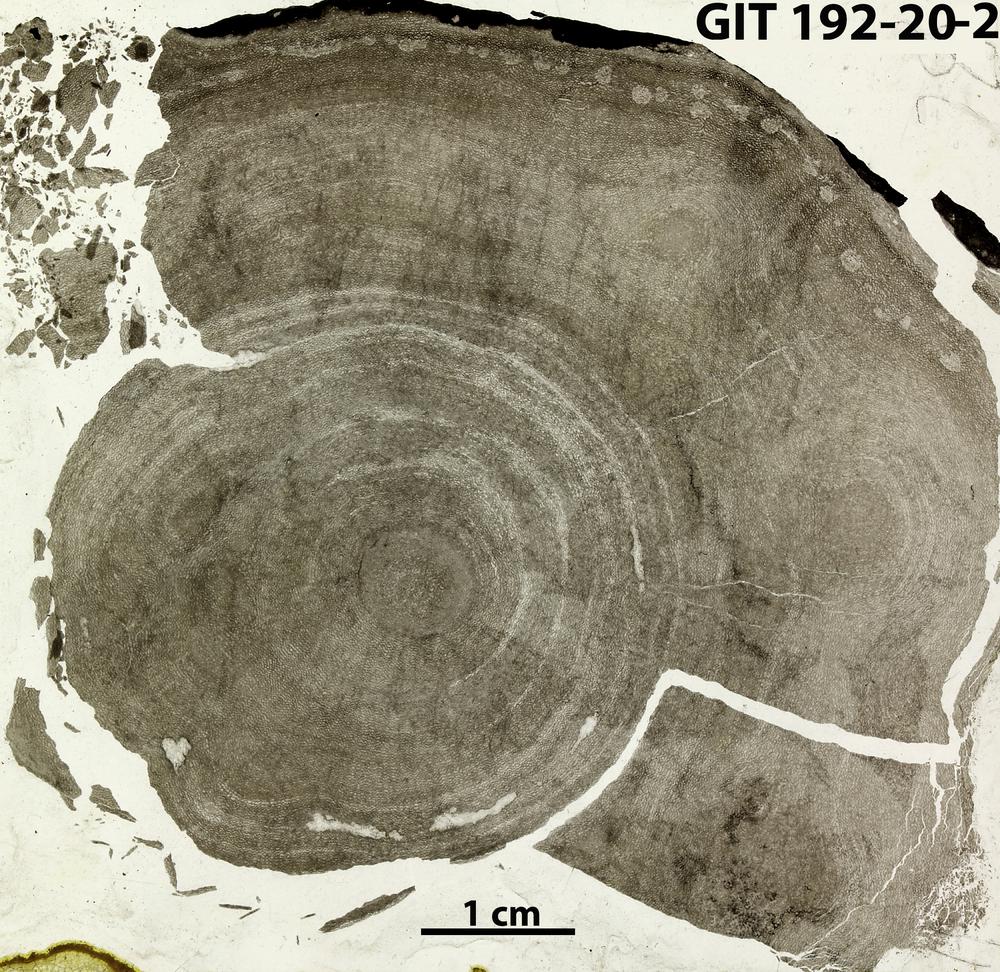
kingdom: Animalia
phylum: Porifera
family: Ecclimadictyidae
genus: Ecclimadictyon
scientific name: Ecclimadictyon Clathrodictyon fastigiatum
